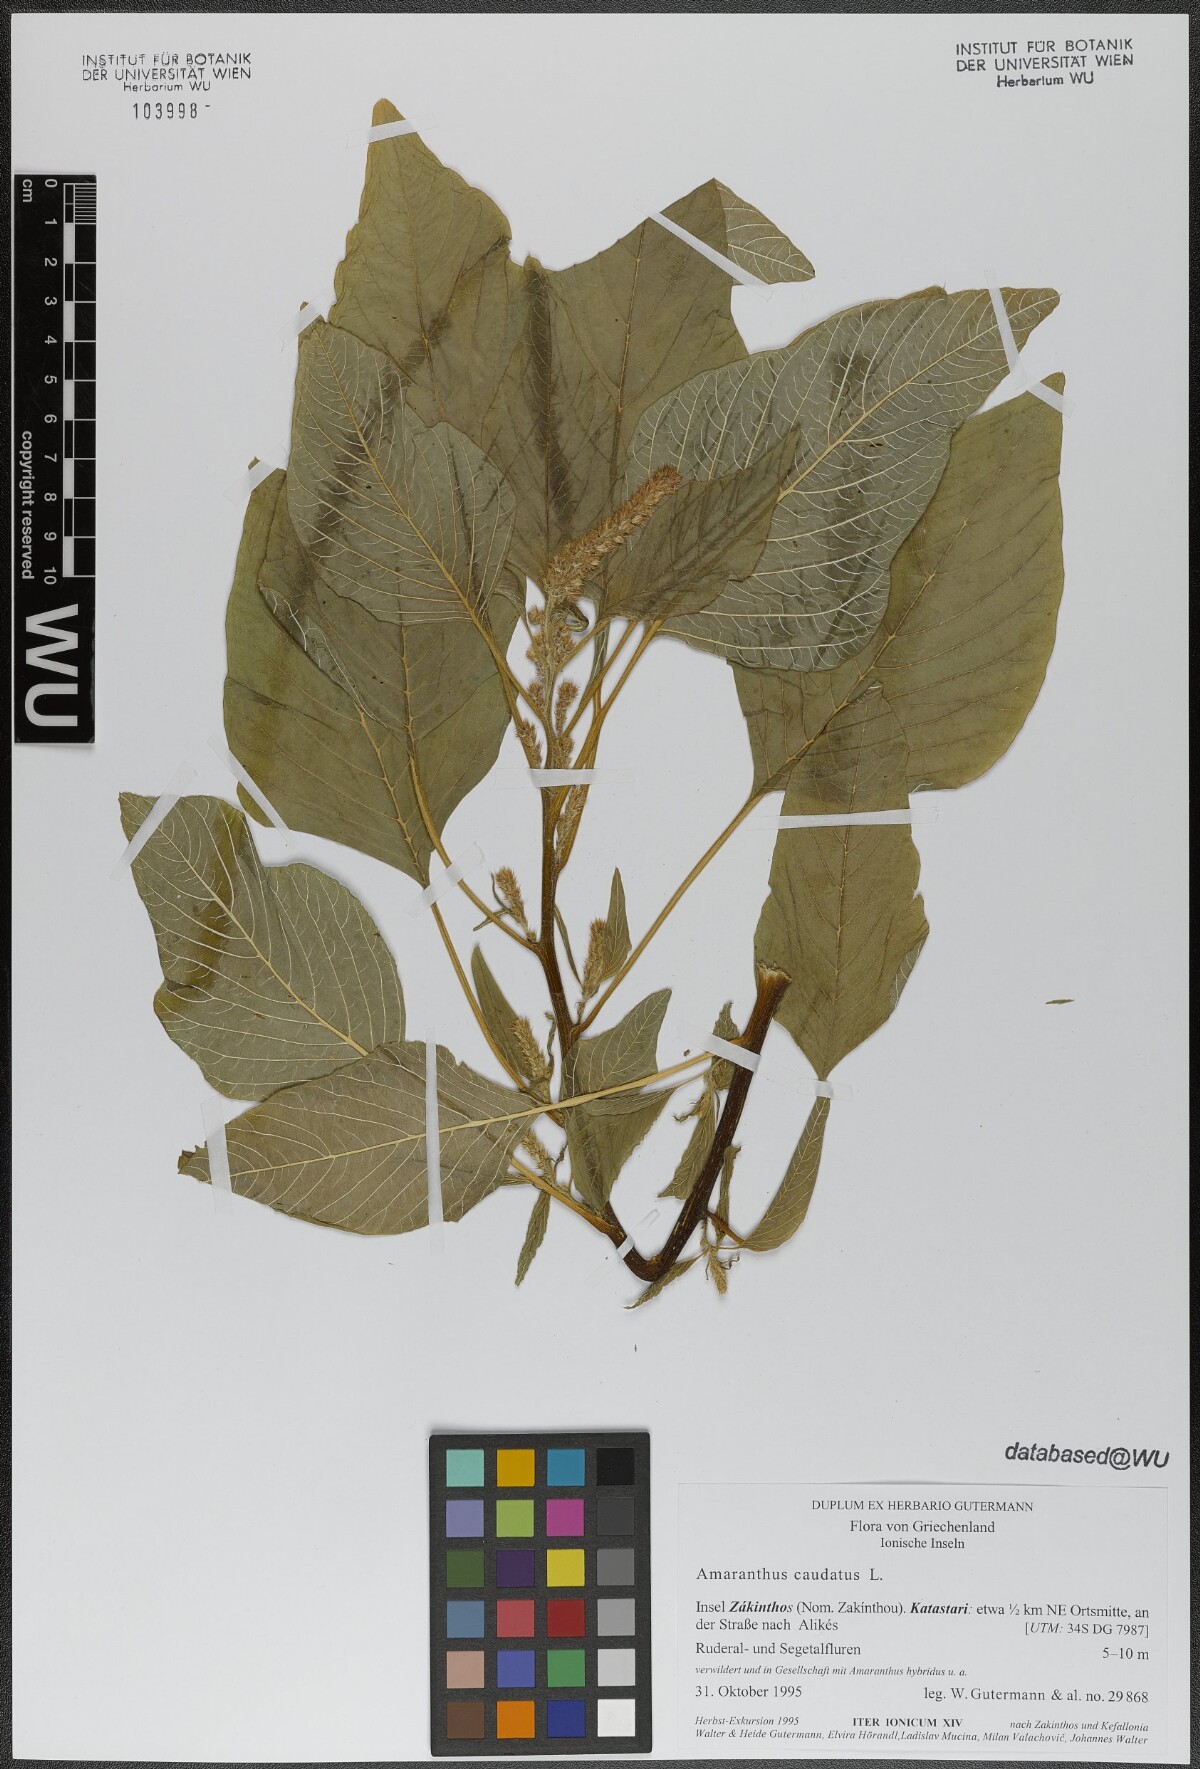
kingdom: Plantae
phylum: Tracheophyta
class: Magnoliopsida
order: Caryophyllales
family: Amaranthaceae
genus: Amaranthus
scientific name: Amaranthus caudatus
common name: Love-lies-bleeding
